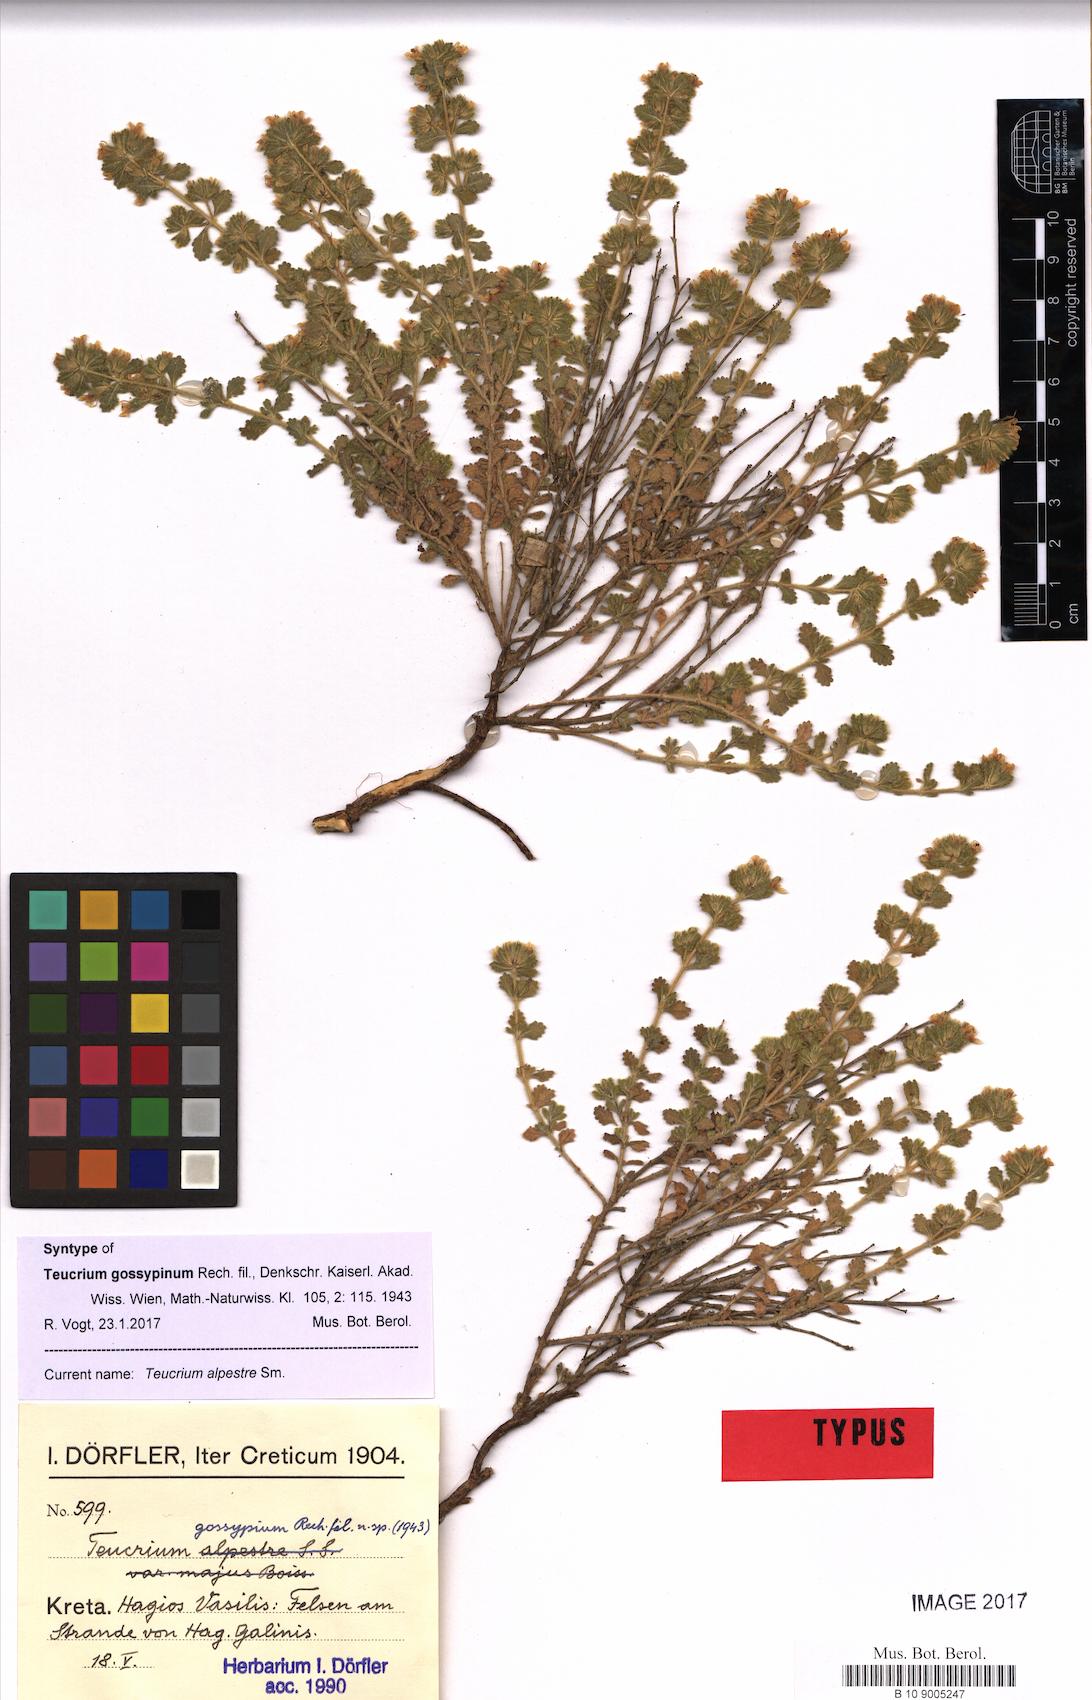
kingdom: Plantae
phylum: Tracheophyta
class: Magnoliopsida
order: Lamiales
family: Lamiaceae
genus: Teucrium
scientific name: Teucrium alpestre
